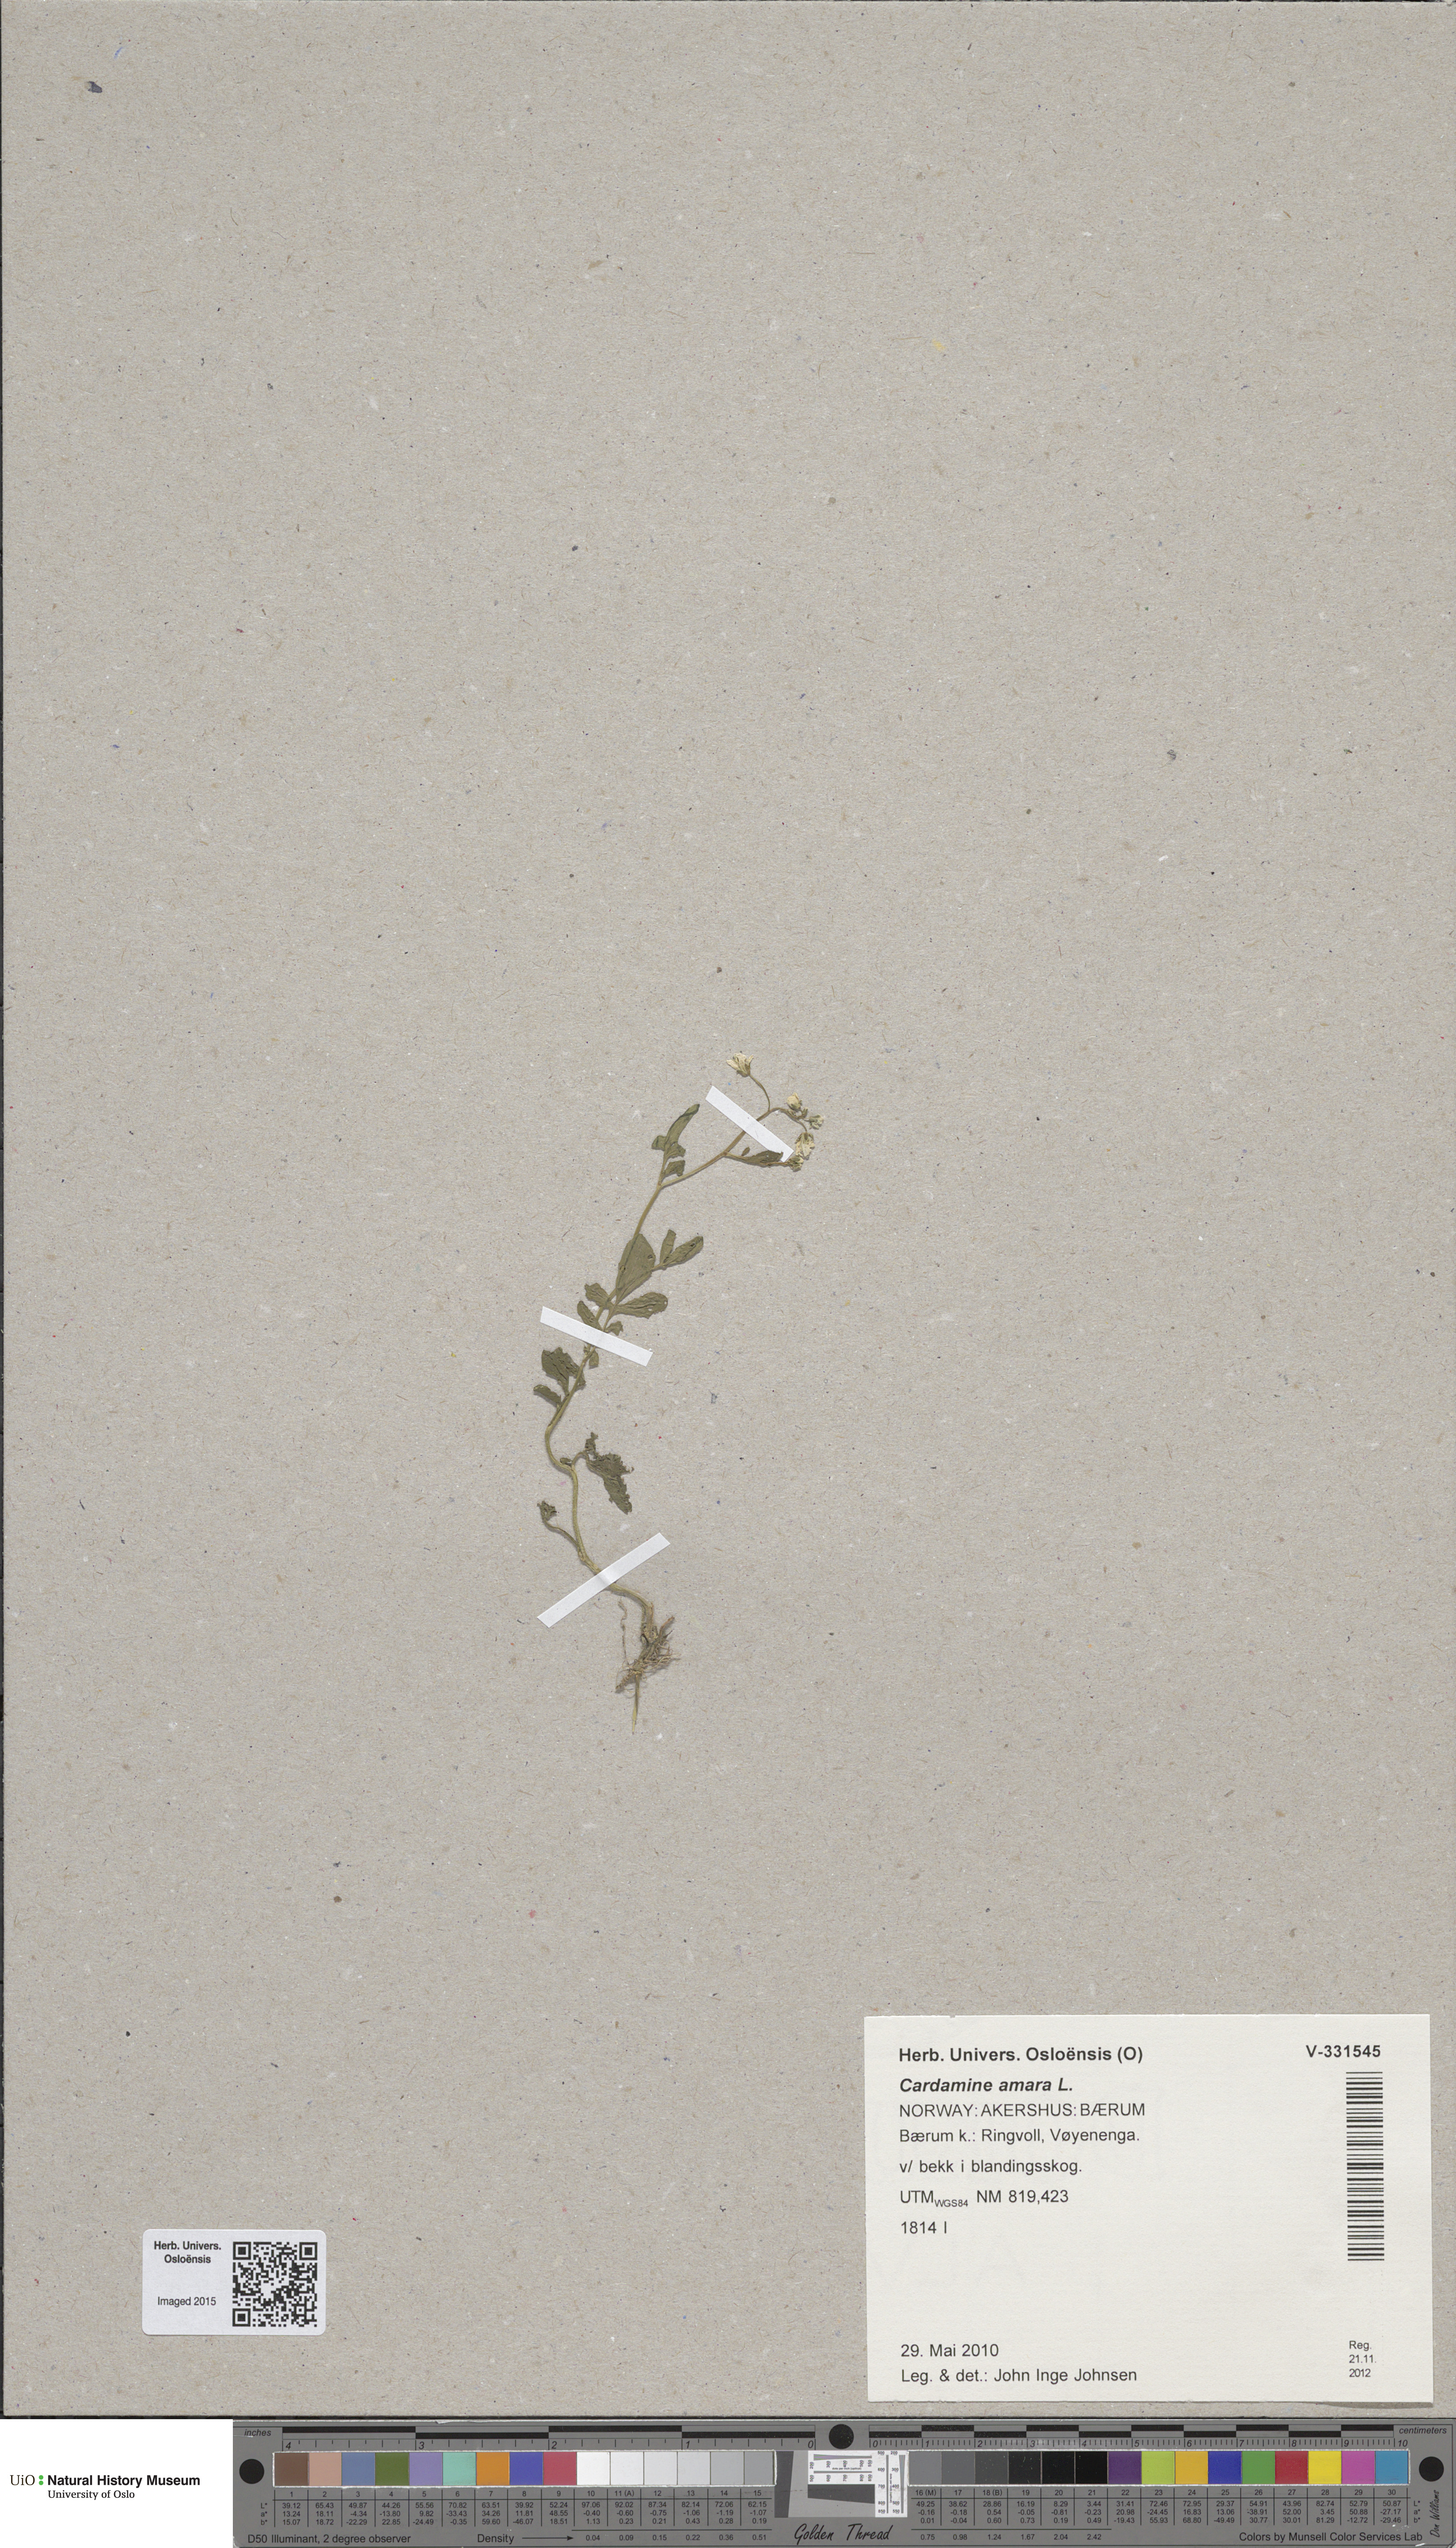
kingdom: Plantae
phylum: Tracheophyta
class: Magnoliopsida
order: Brassicales
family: Brassicaceae
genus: Cardamine
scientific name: Cardamine amara
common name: Large bitter-cress
